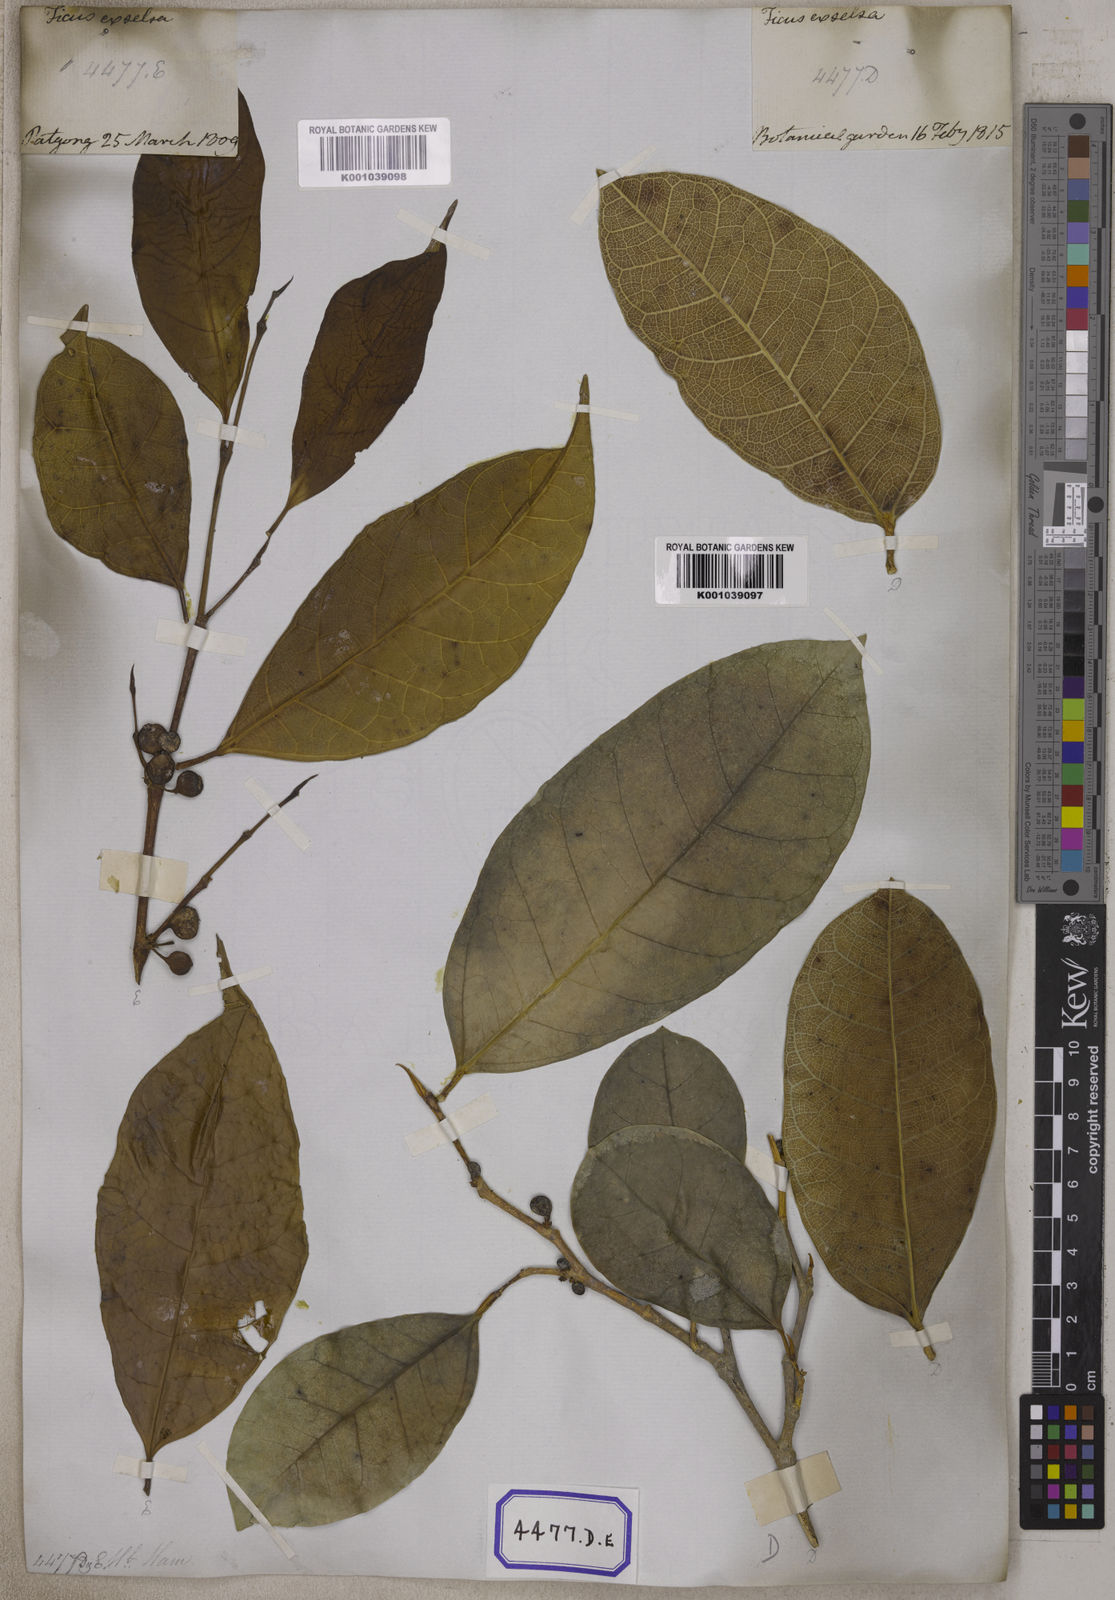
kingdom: Plantae
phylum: Tracheophyta
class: Magnoliopsida
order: Rosales
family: Moraceae
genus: Ficus
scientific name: Ficus tinctoria
